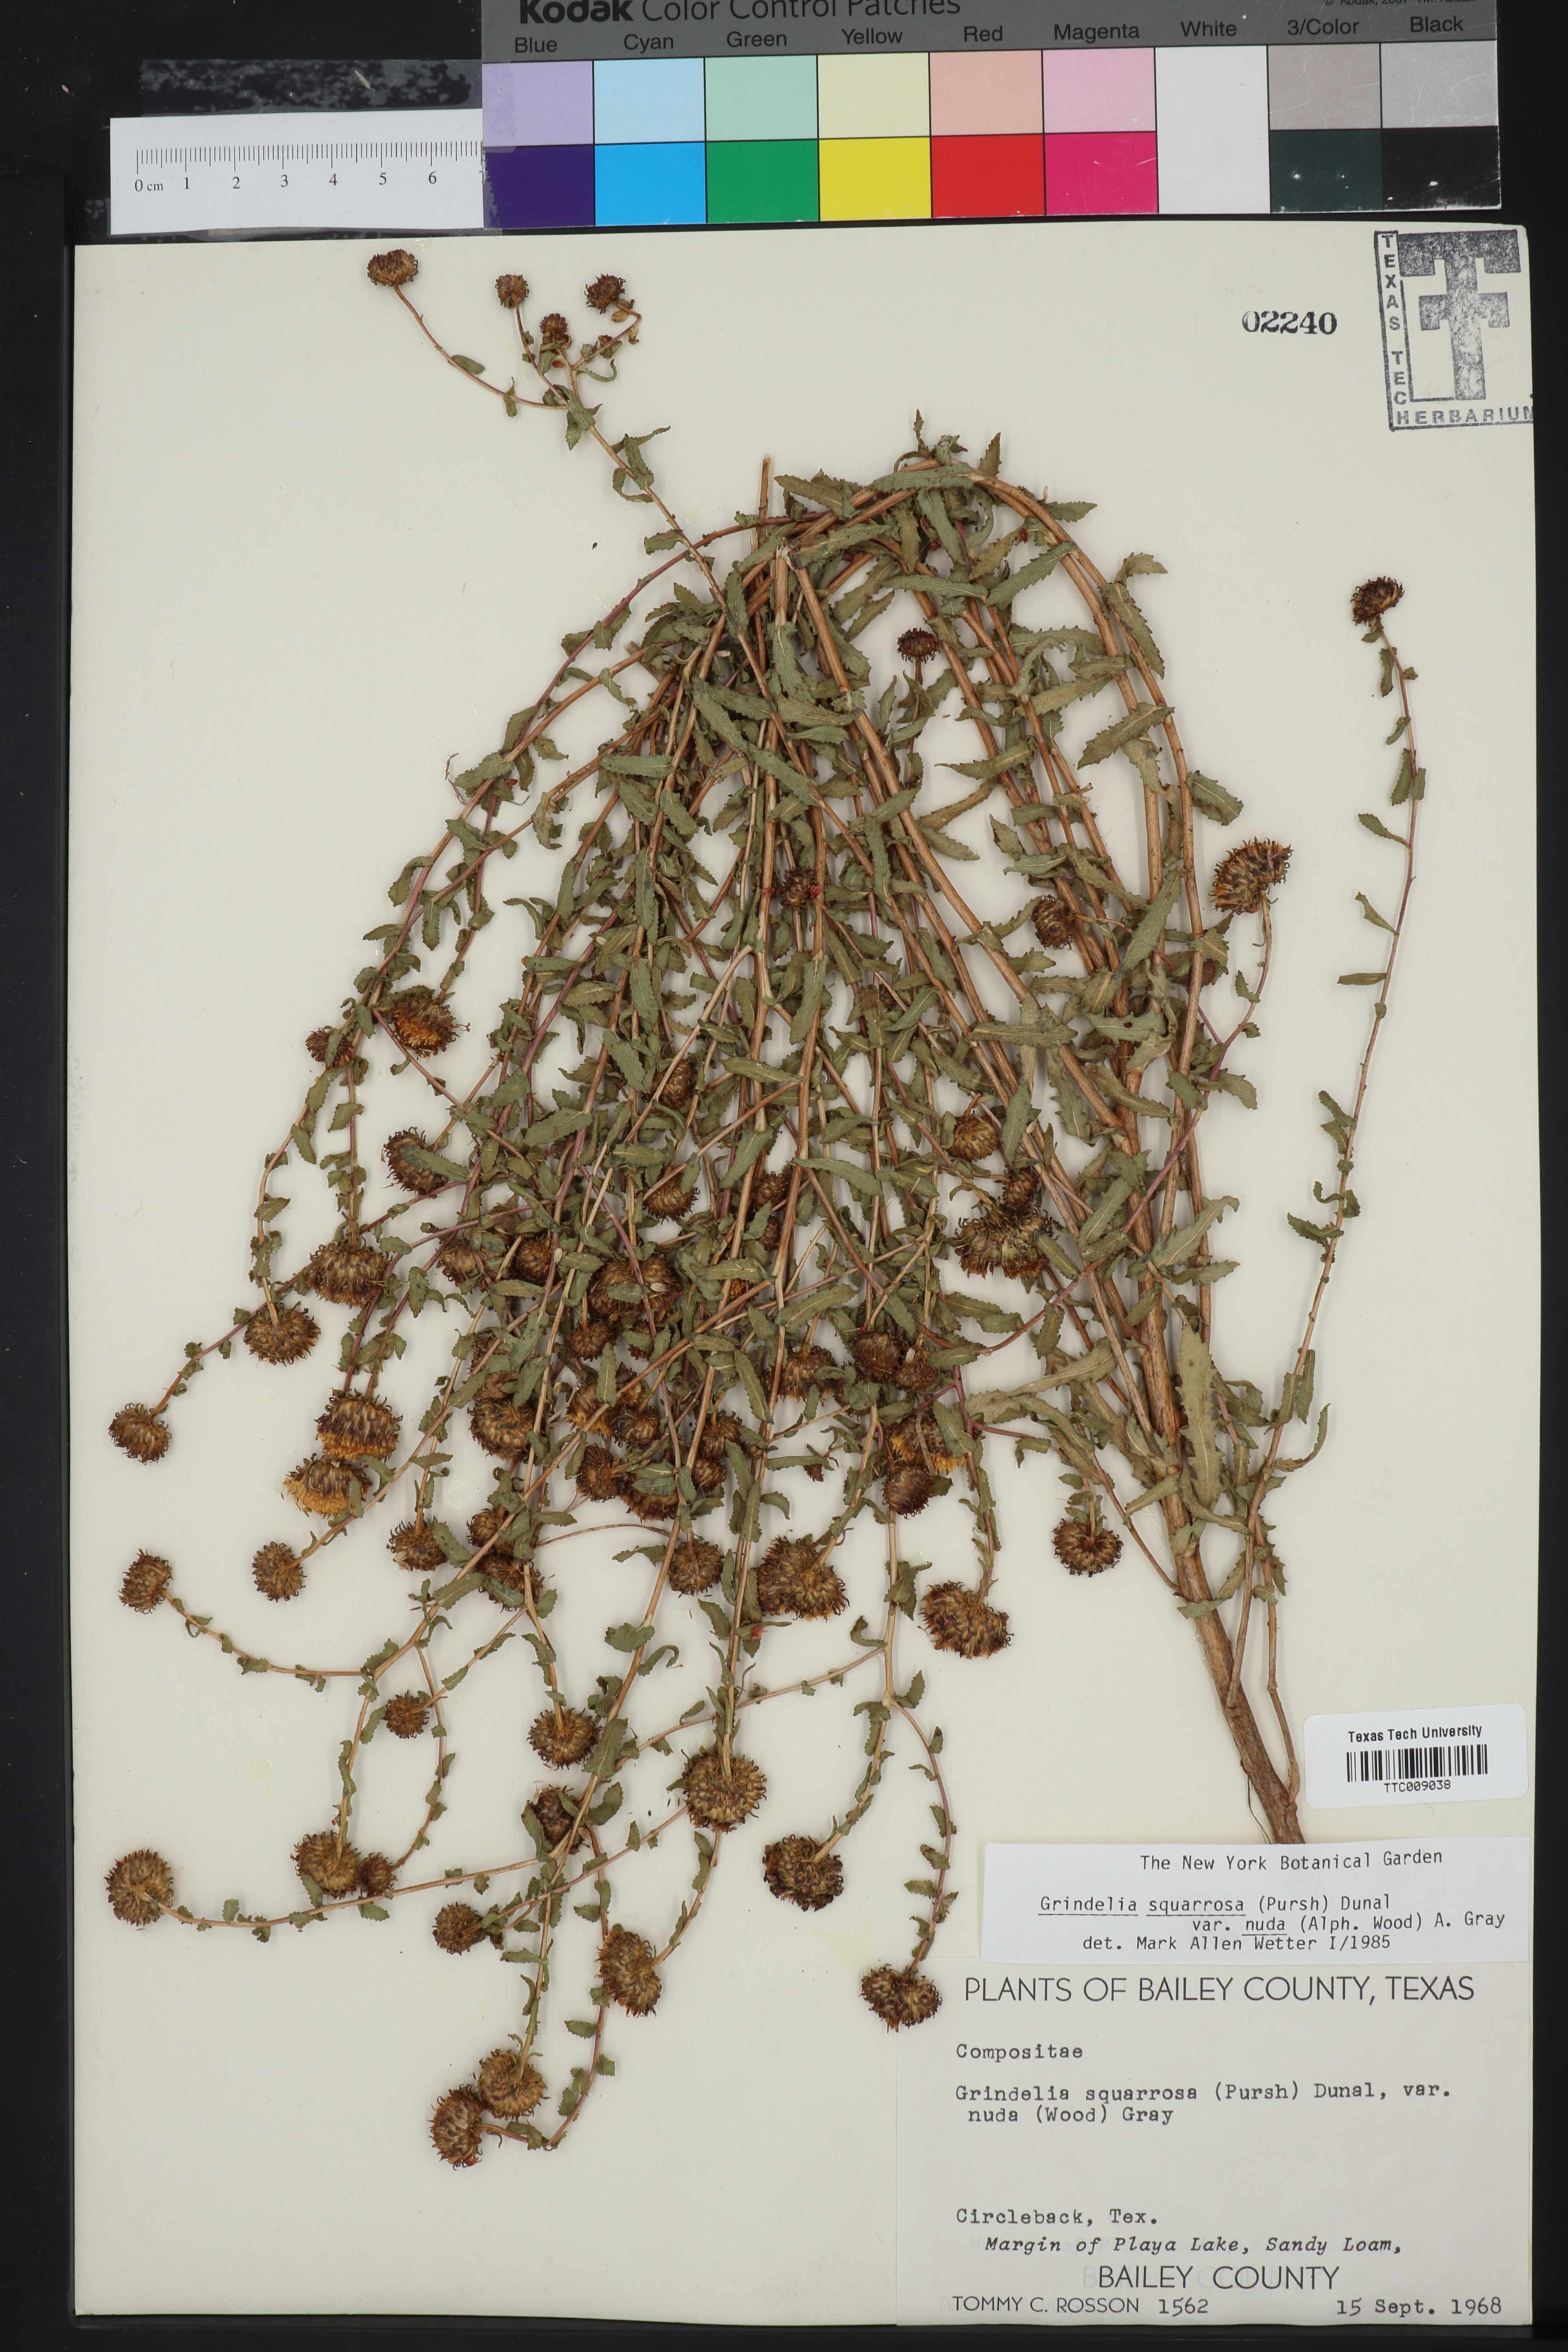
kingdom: Plantae
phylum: Tracheophyta
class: Magnoliopsida
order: Asterales
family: Asteraceae
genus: Grindelia
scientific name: Grindelia nuda
